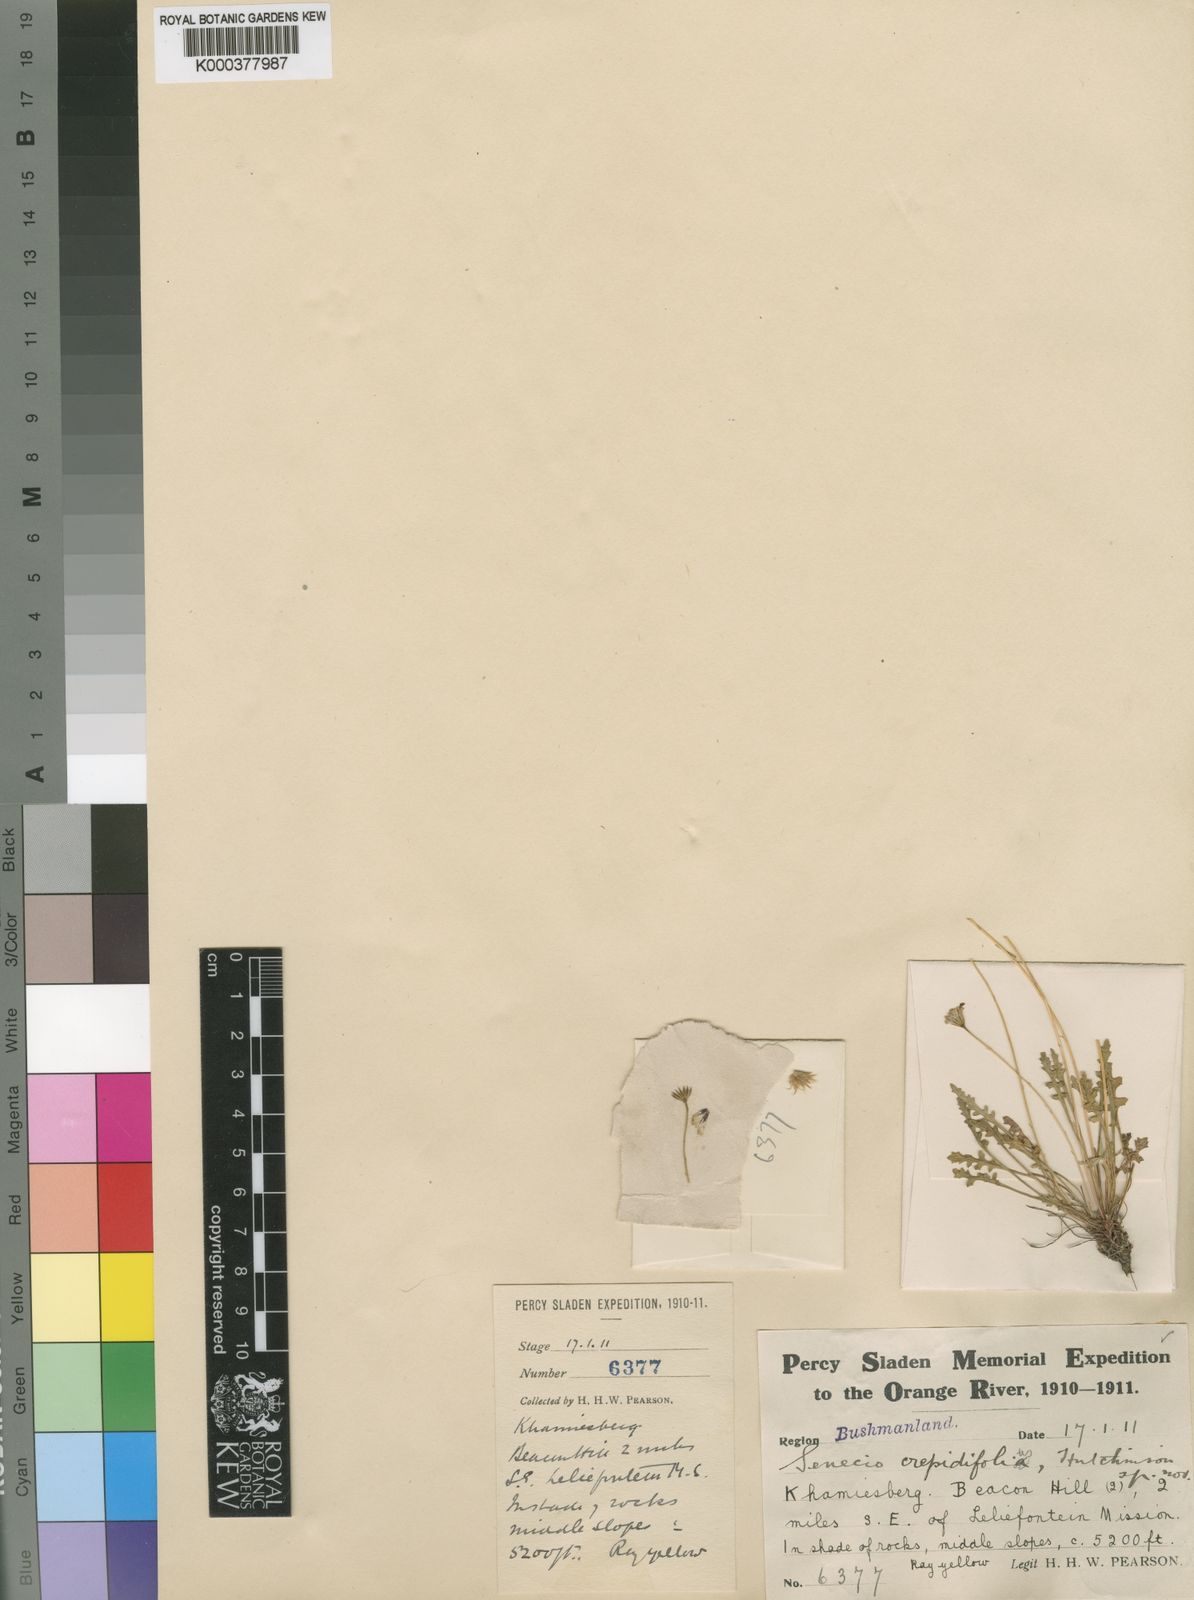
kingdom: Plantae
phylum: Tracheophyta
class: Magnoliopsida
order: Asterales
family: Asteraceae
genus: Senecio
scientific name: Senecio
